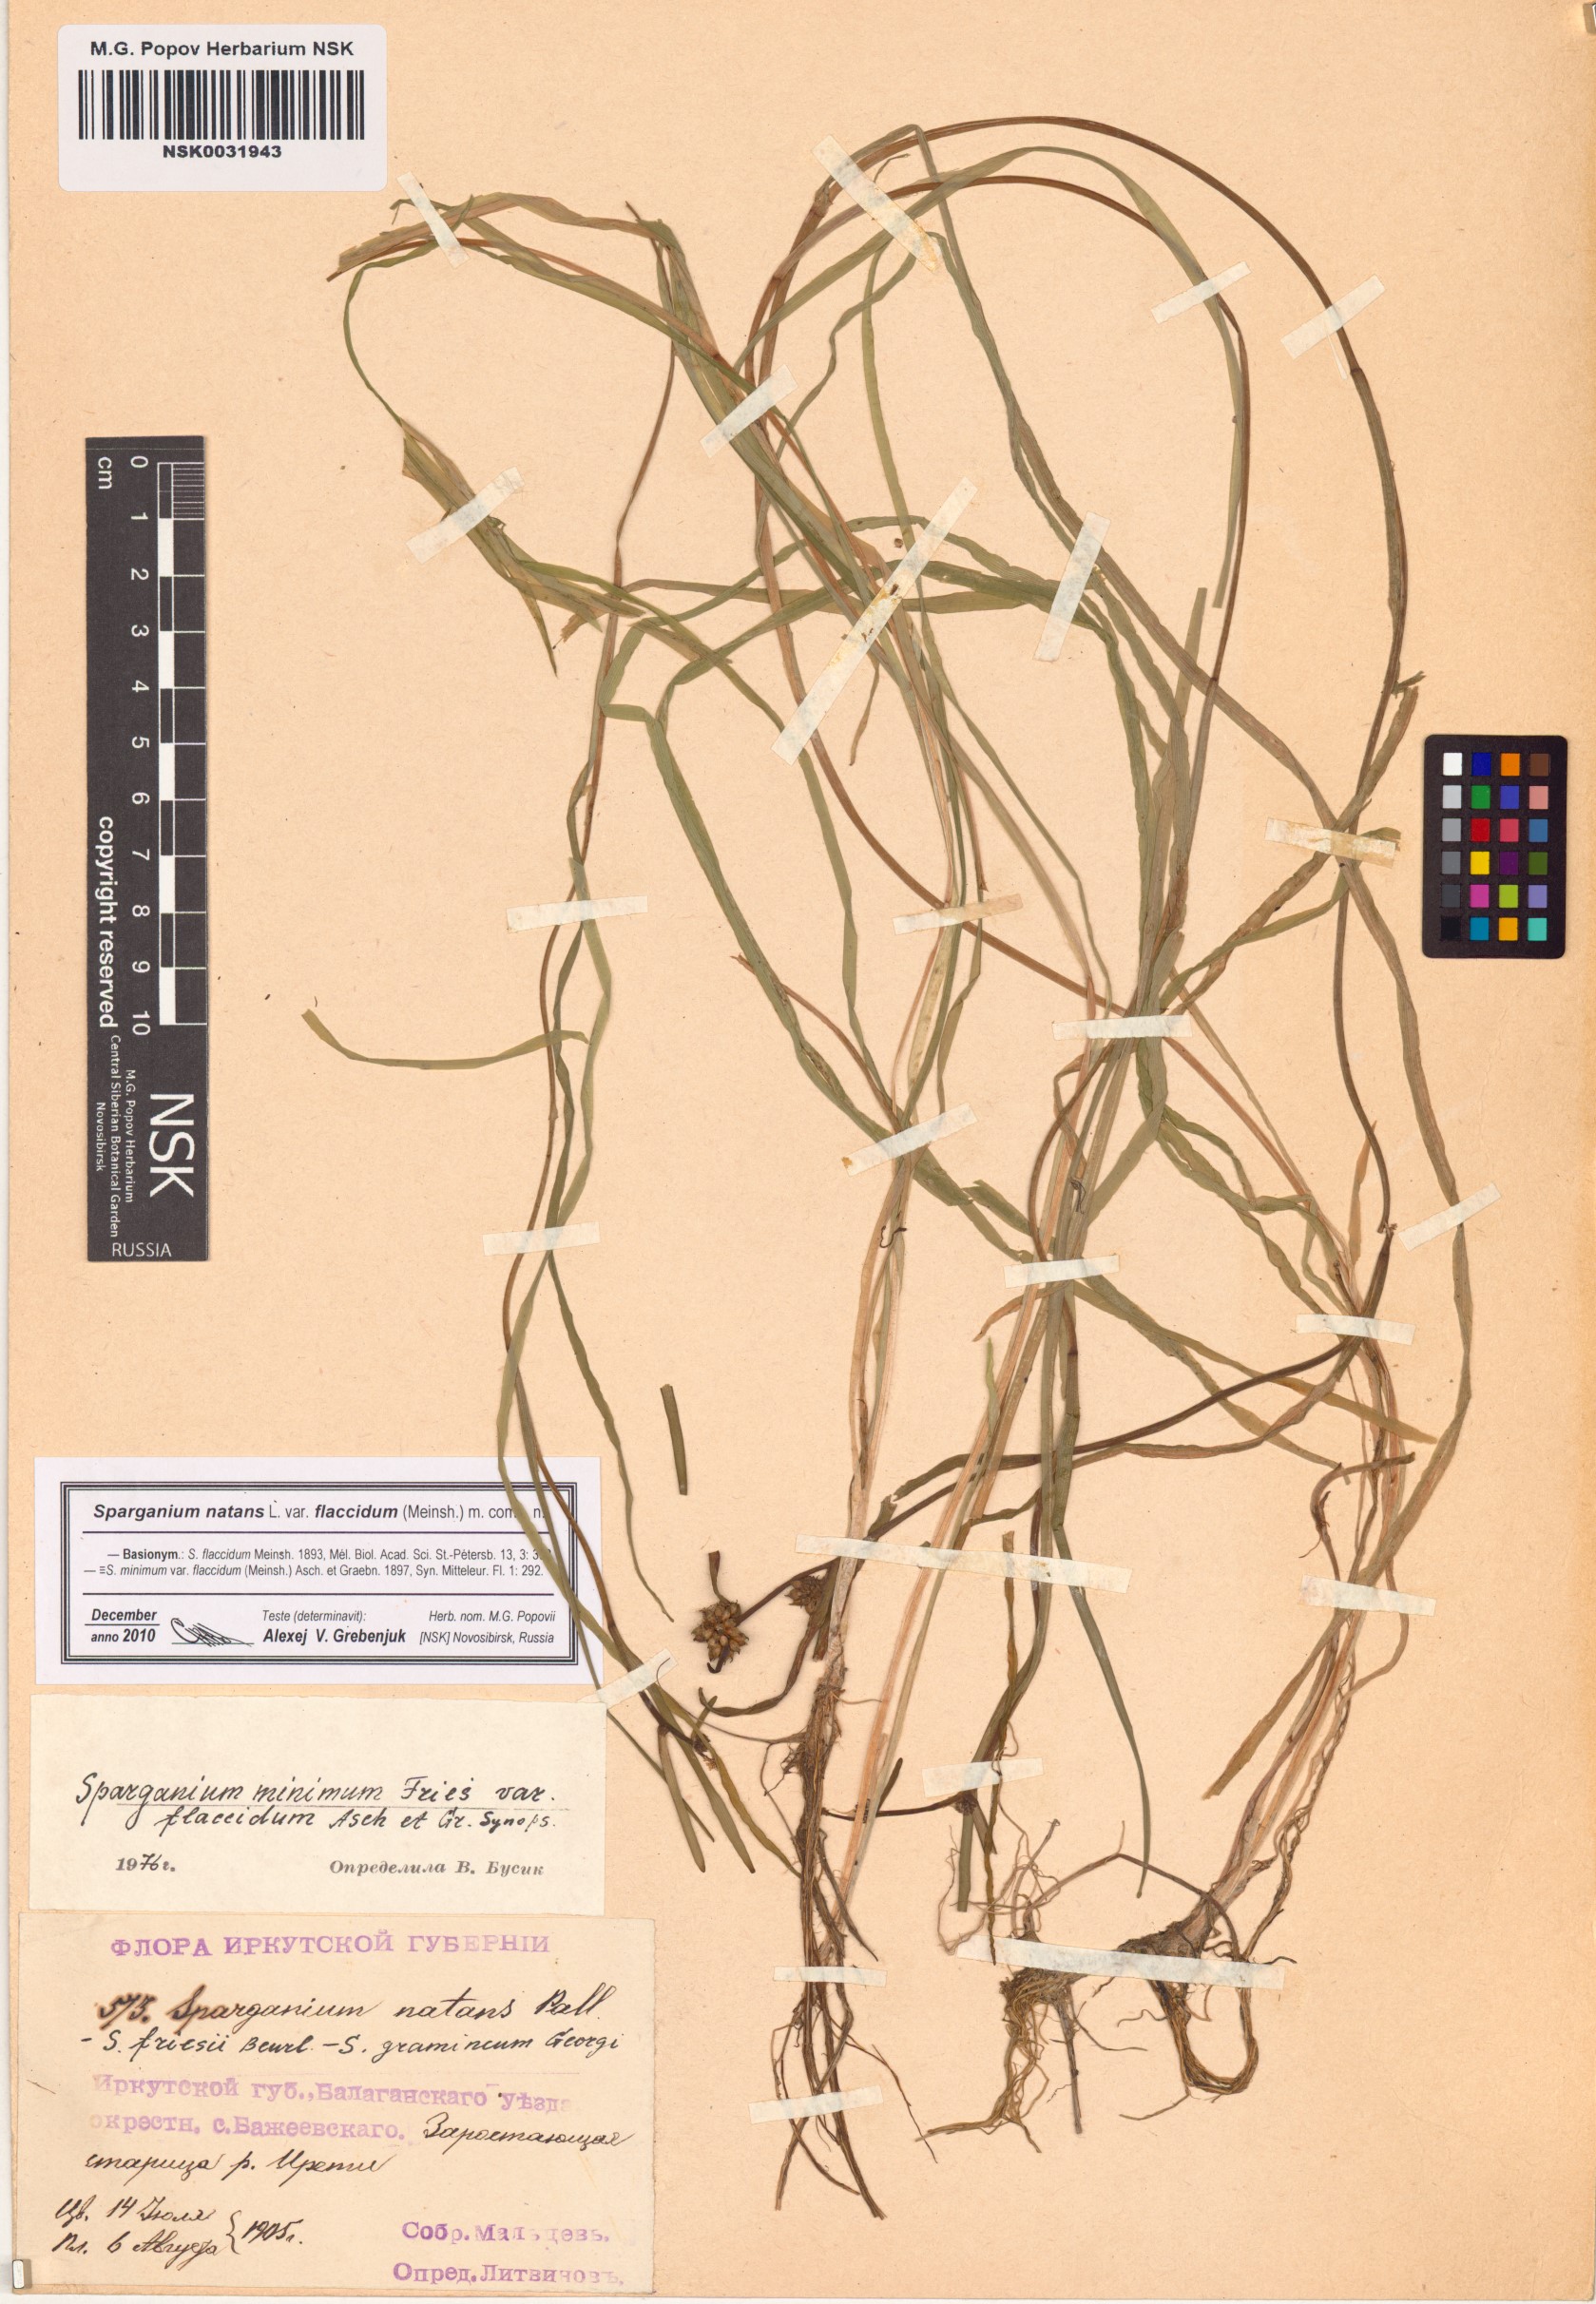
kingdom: Plantae
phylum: Tracheophyta
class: Liliopsida
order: Poales
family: Typhaceae
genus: Sparganium
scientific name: Sparganium natans
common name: Least bur-reed
